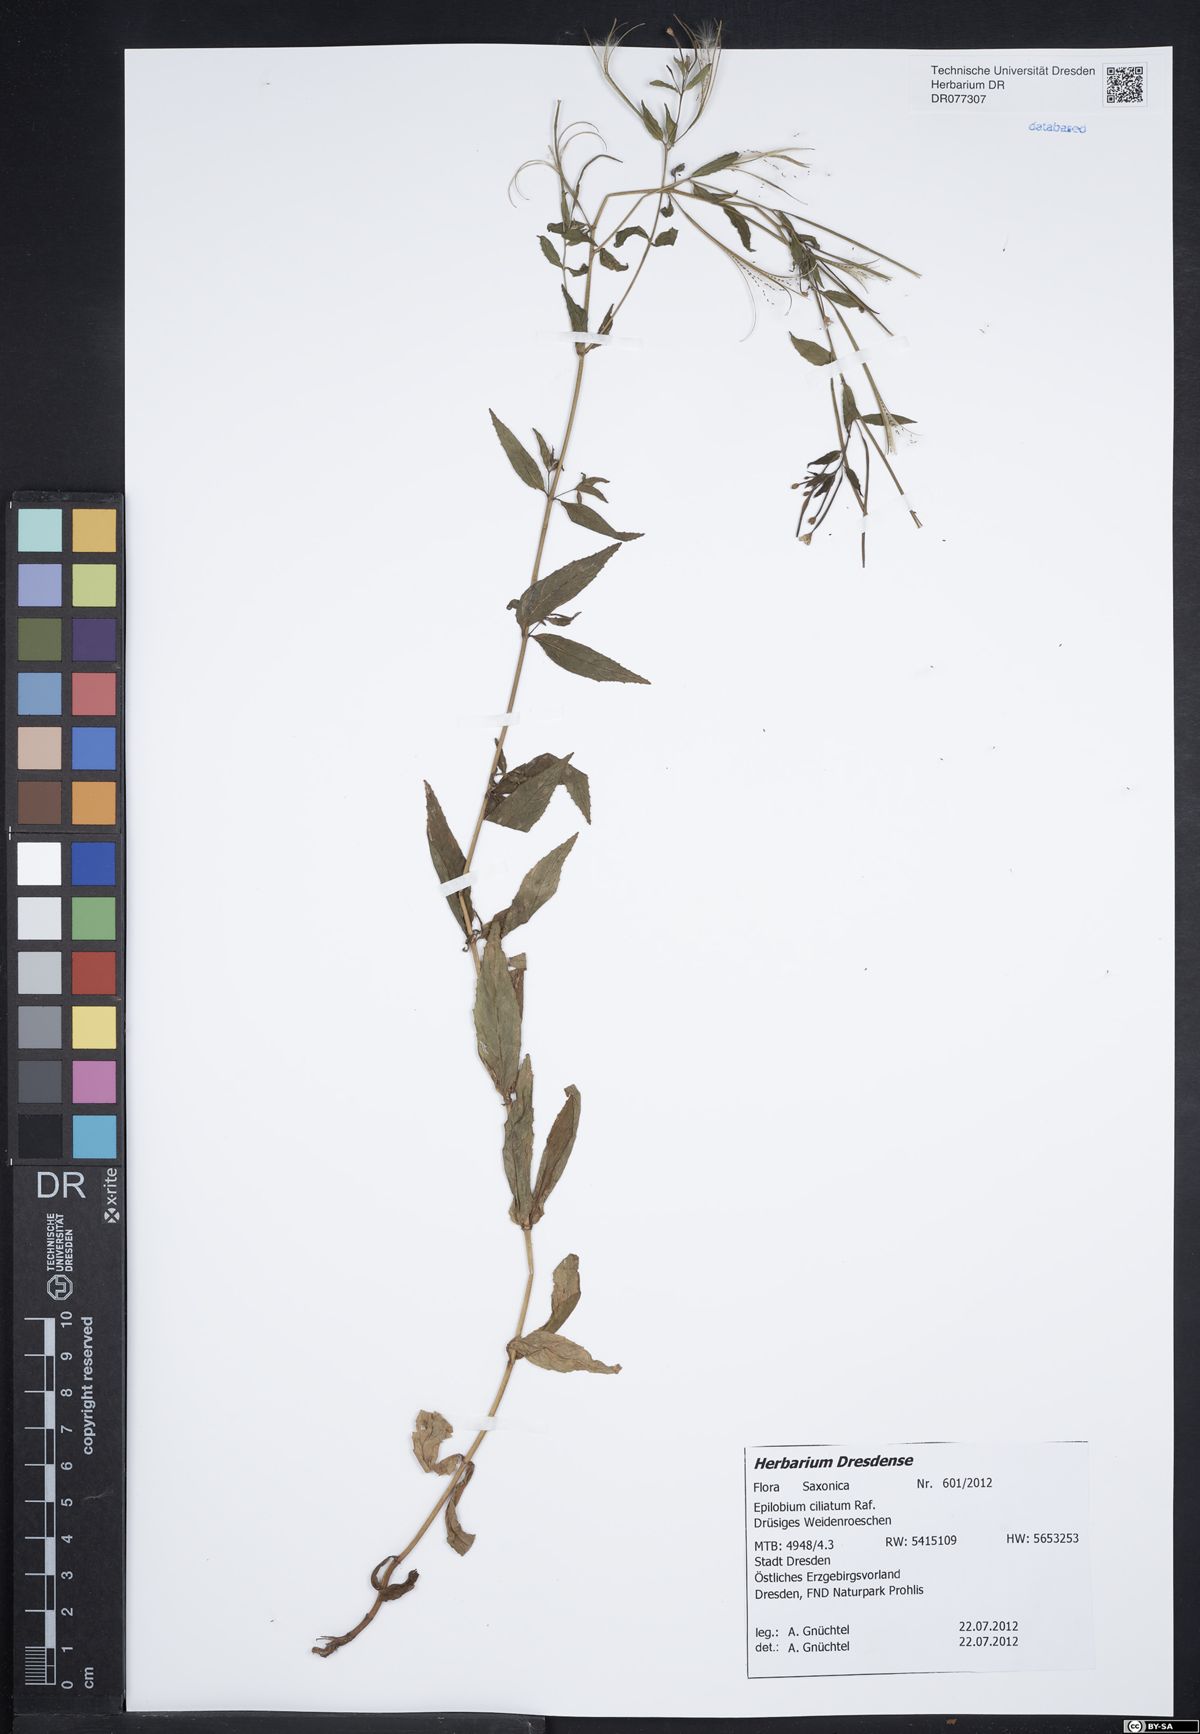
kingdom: Plantae
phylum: Tracheophyta
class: Magnoliopsida
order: Myrtales
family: Onagraceae
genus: Epilobium
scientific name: Epilobium ciliatum
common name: American willowherb
